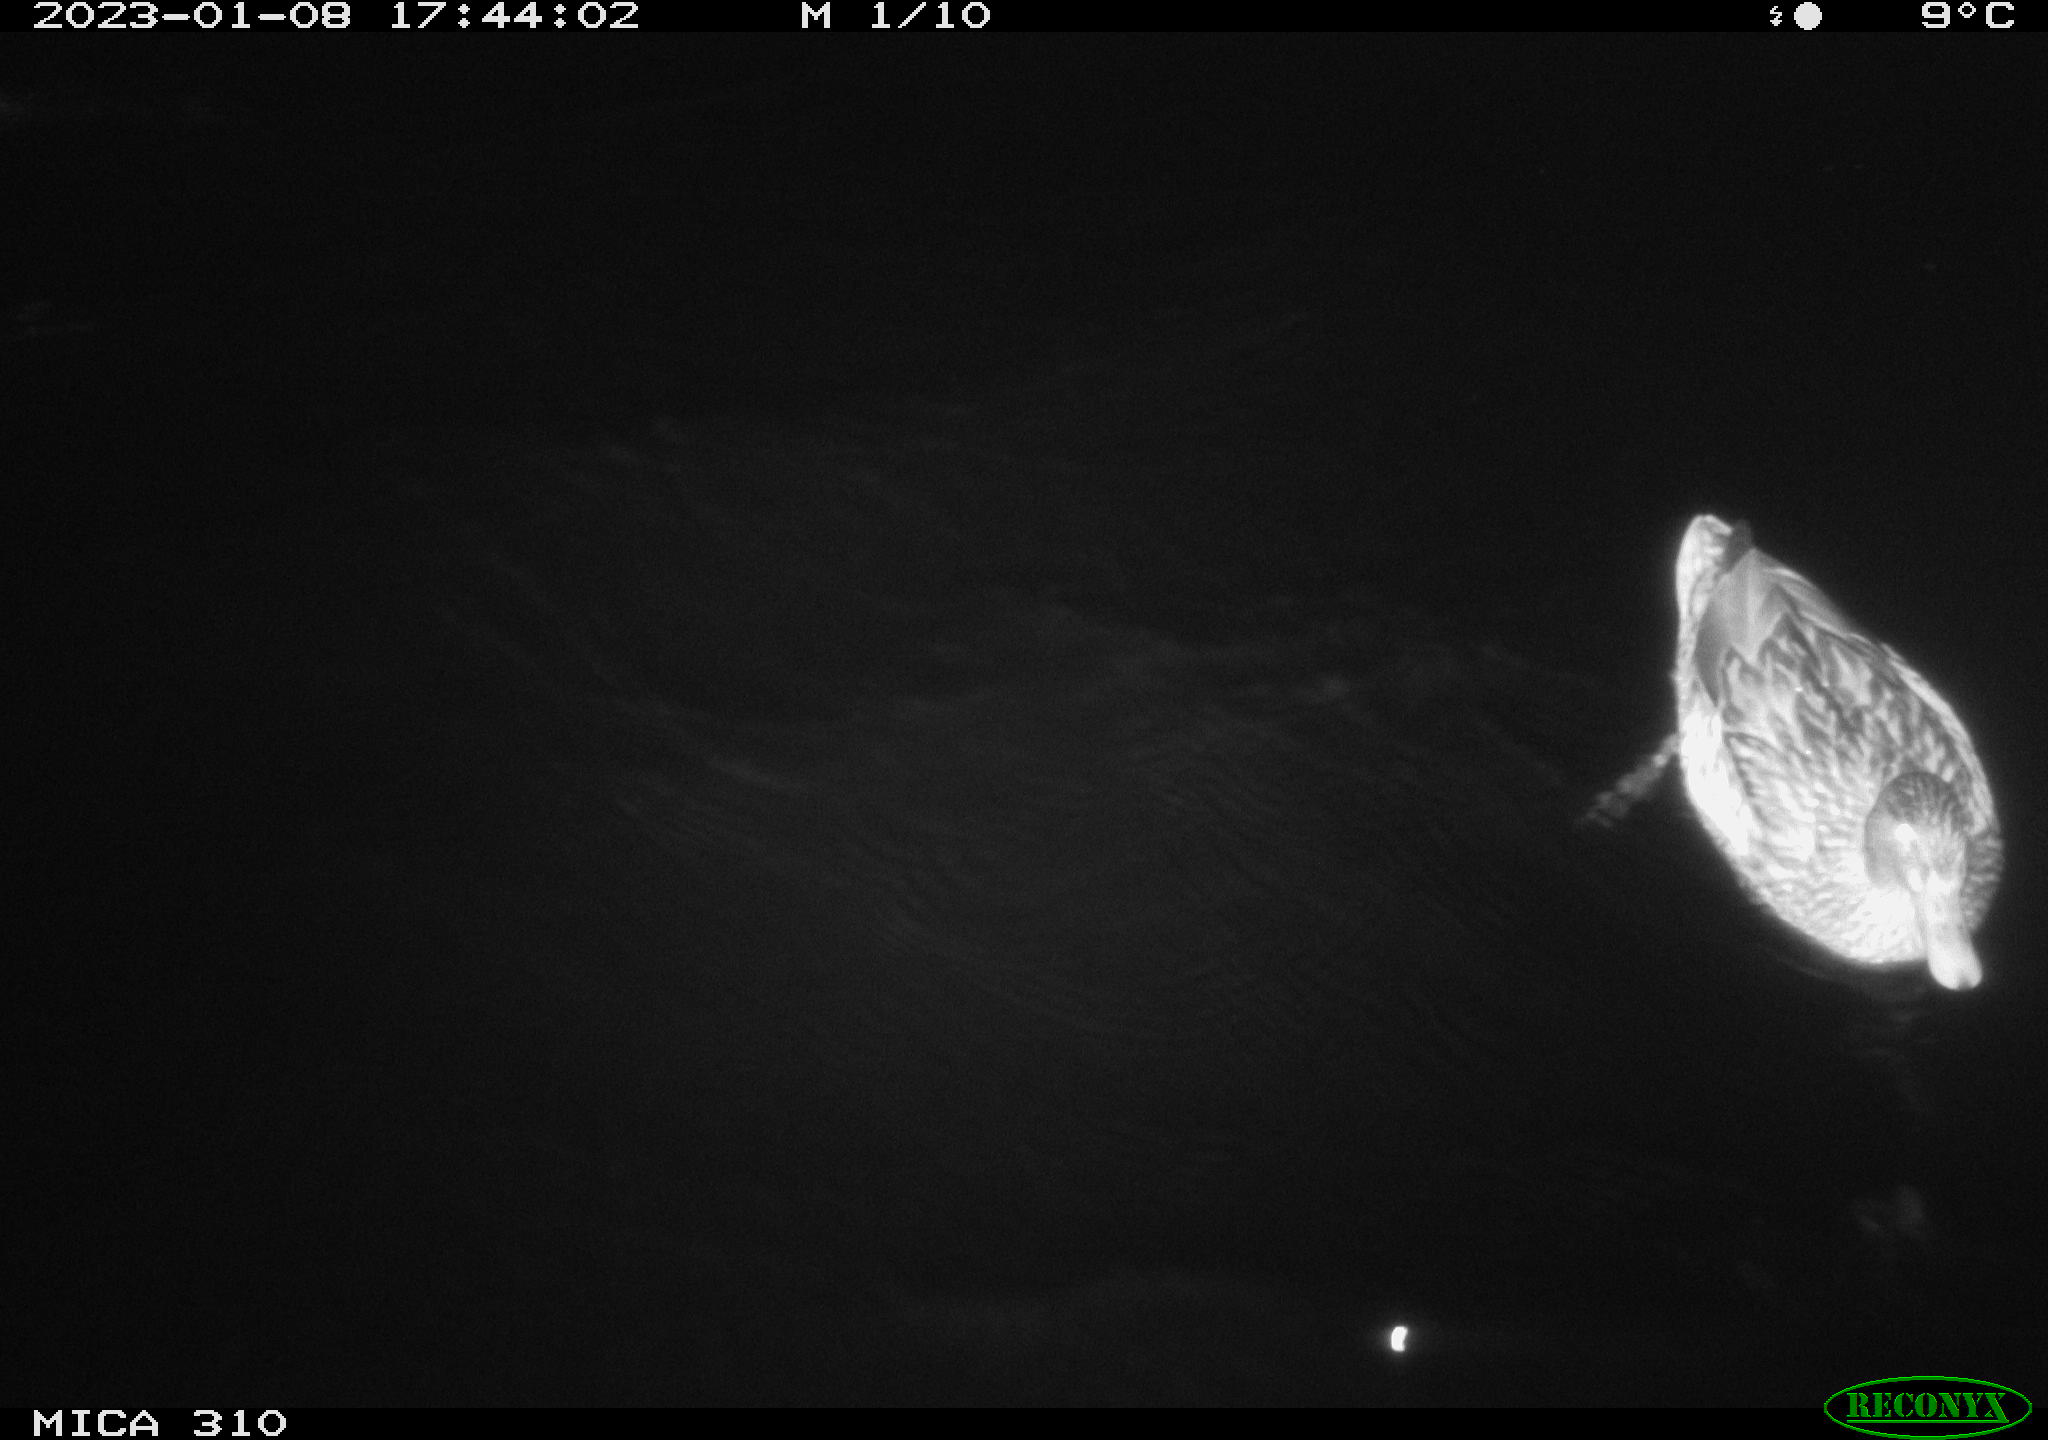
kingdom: Animalia
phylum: Chordata
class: Aves
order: Pelecaniformes
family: Ardeidae
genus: Ardea
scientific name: Ardea cinerea
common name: Grey heron
